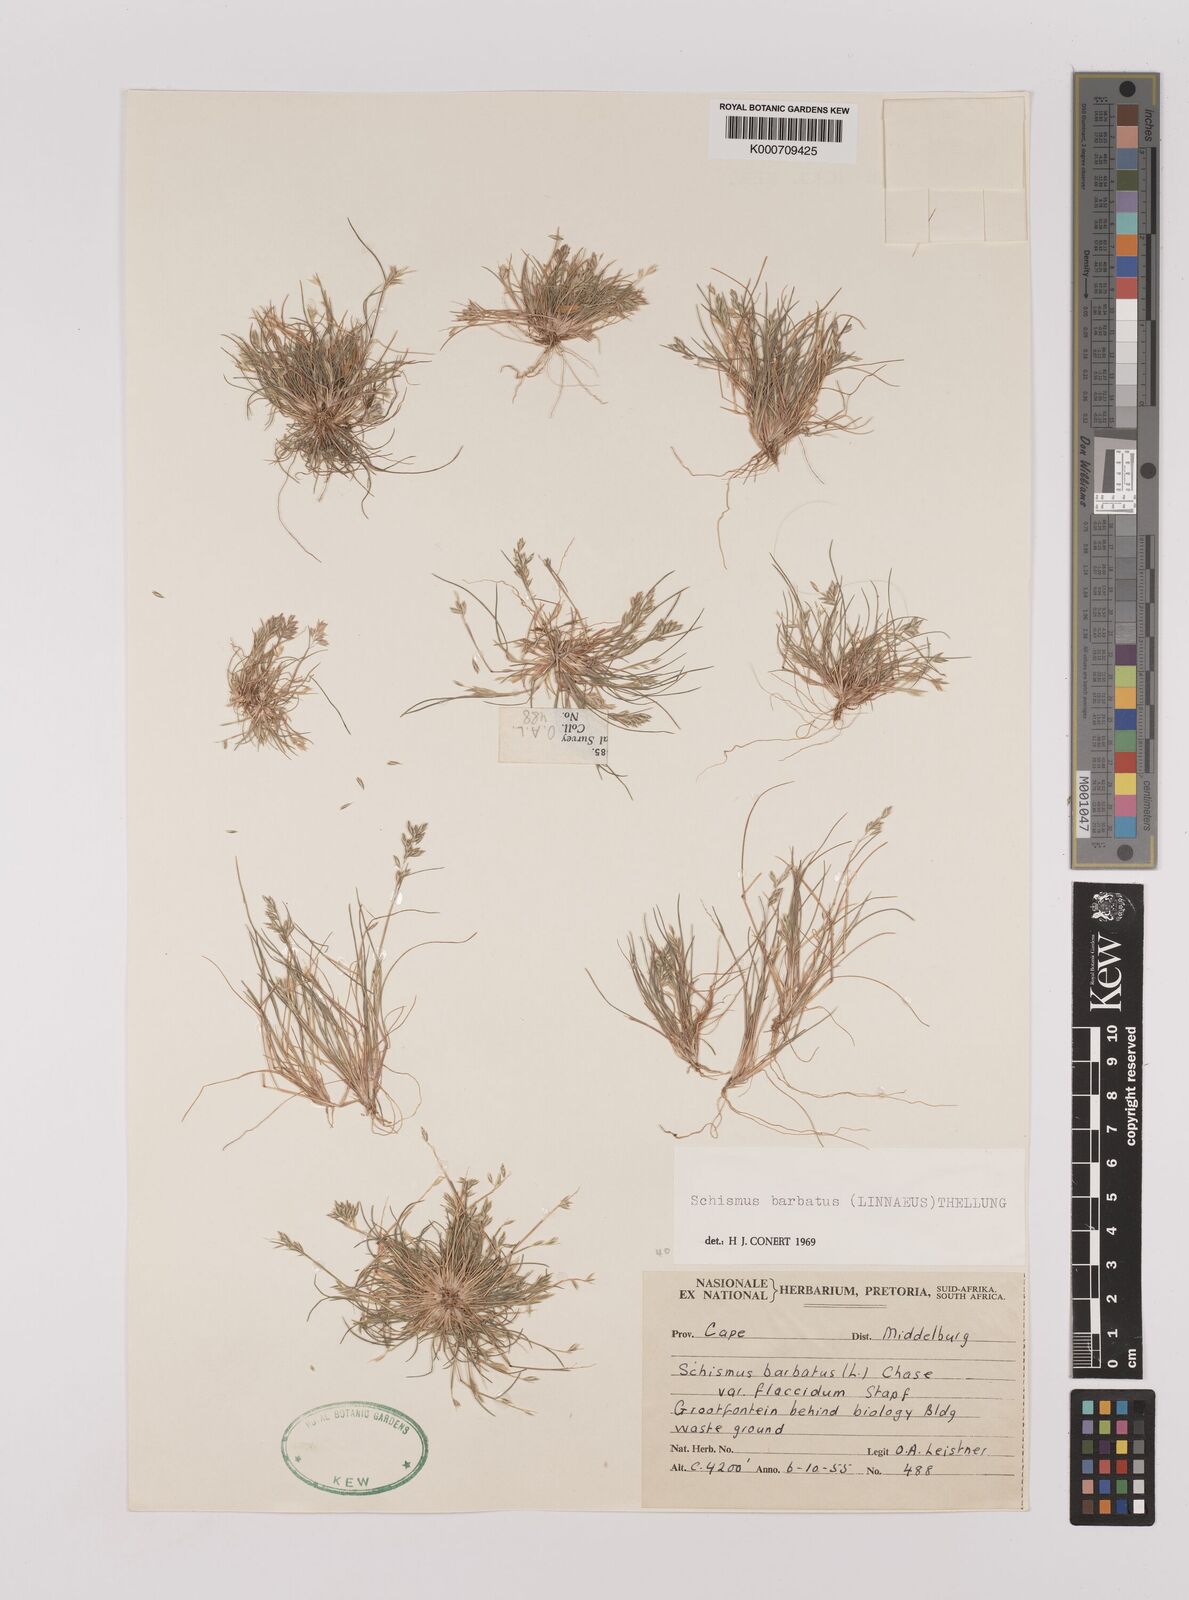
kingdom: Plantae
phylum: Tracheophyta
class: Liliopsida
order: Poales
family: Poaceae
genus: Schismus
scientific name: Schismus barbatus
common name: Kelch-grass
